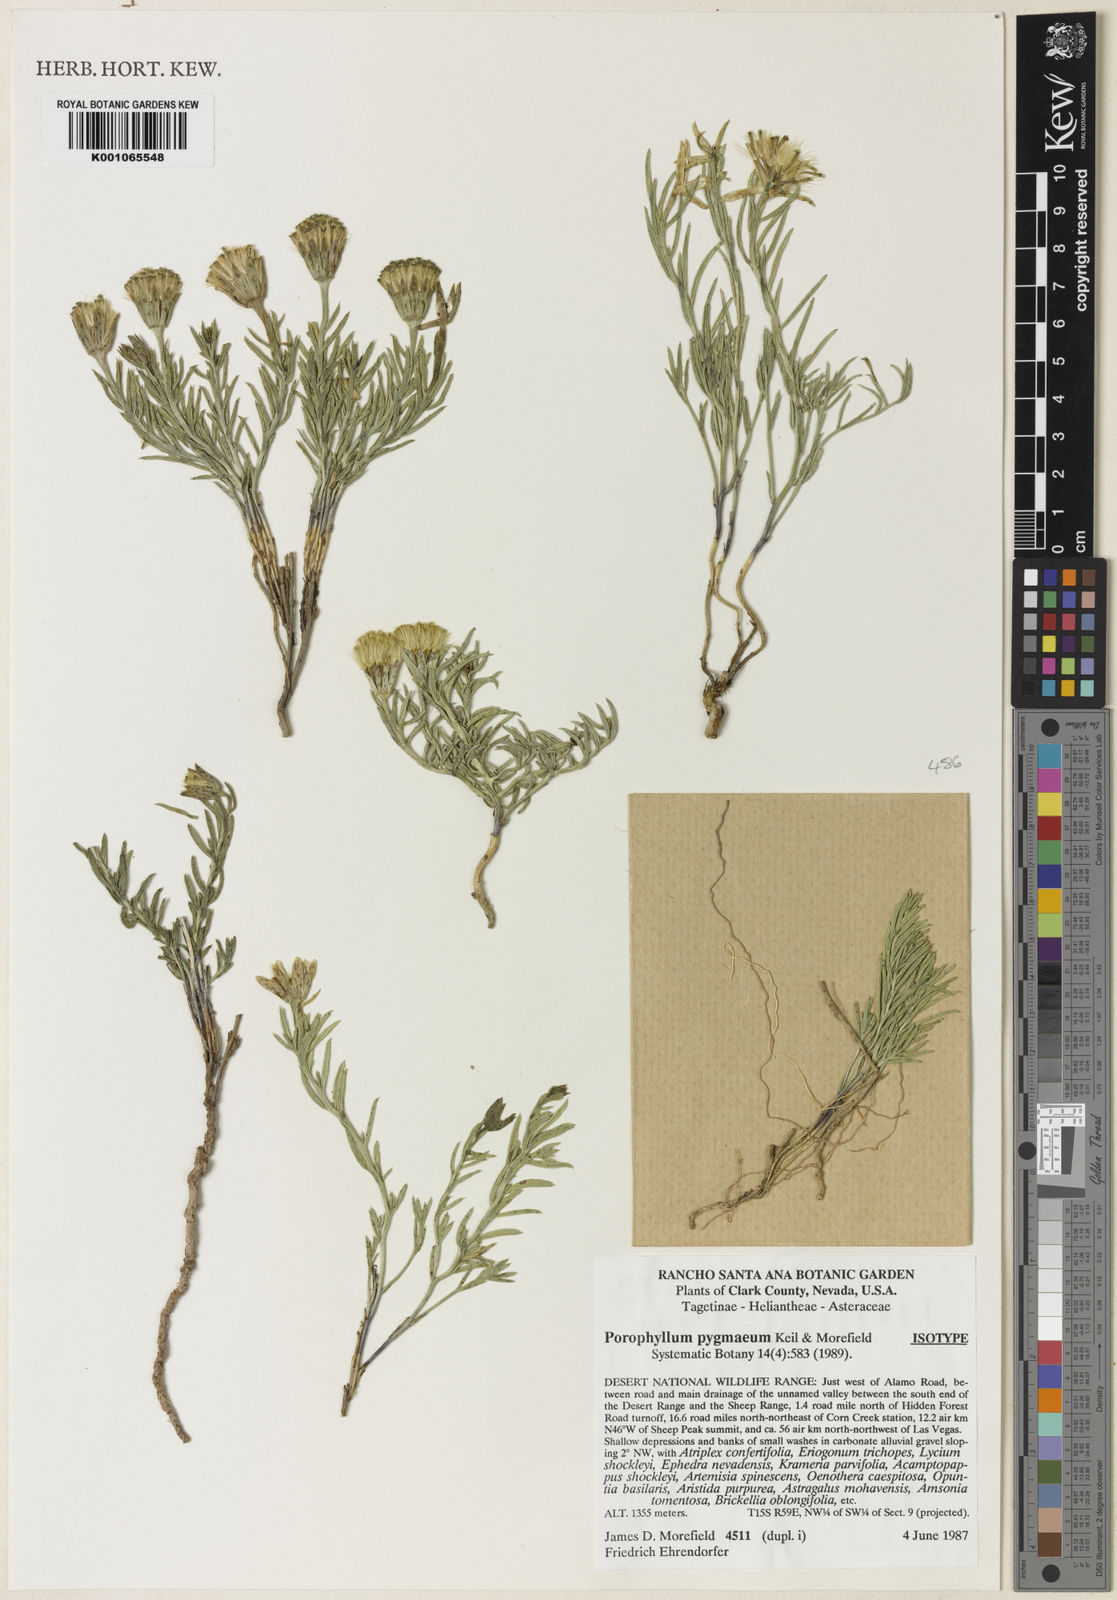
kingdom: Plantae
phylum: Tracheophyta
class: Magnoliopsida
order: Asterales
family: Asteraceae
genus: Porophyllum
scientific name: Porophyllum gracile
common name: Odora
